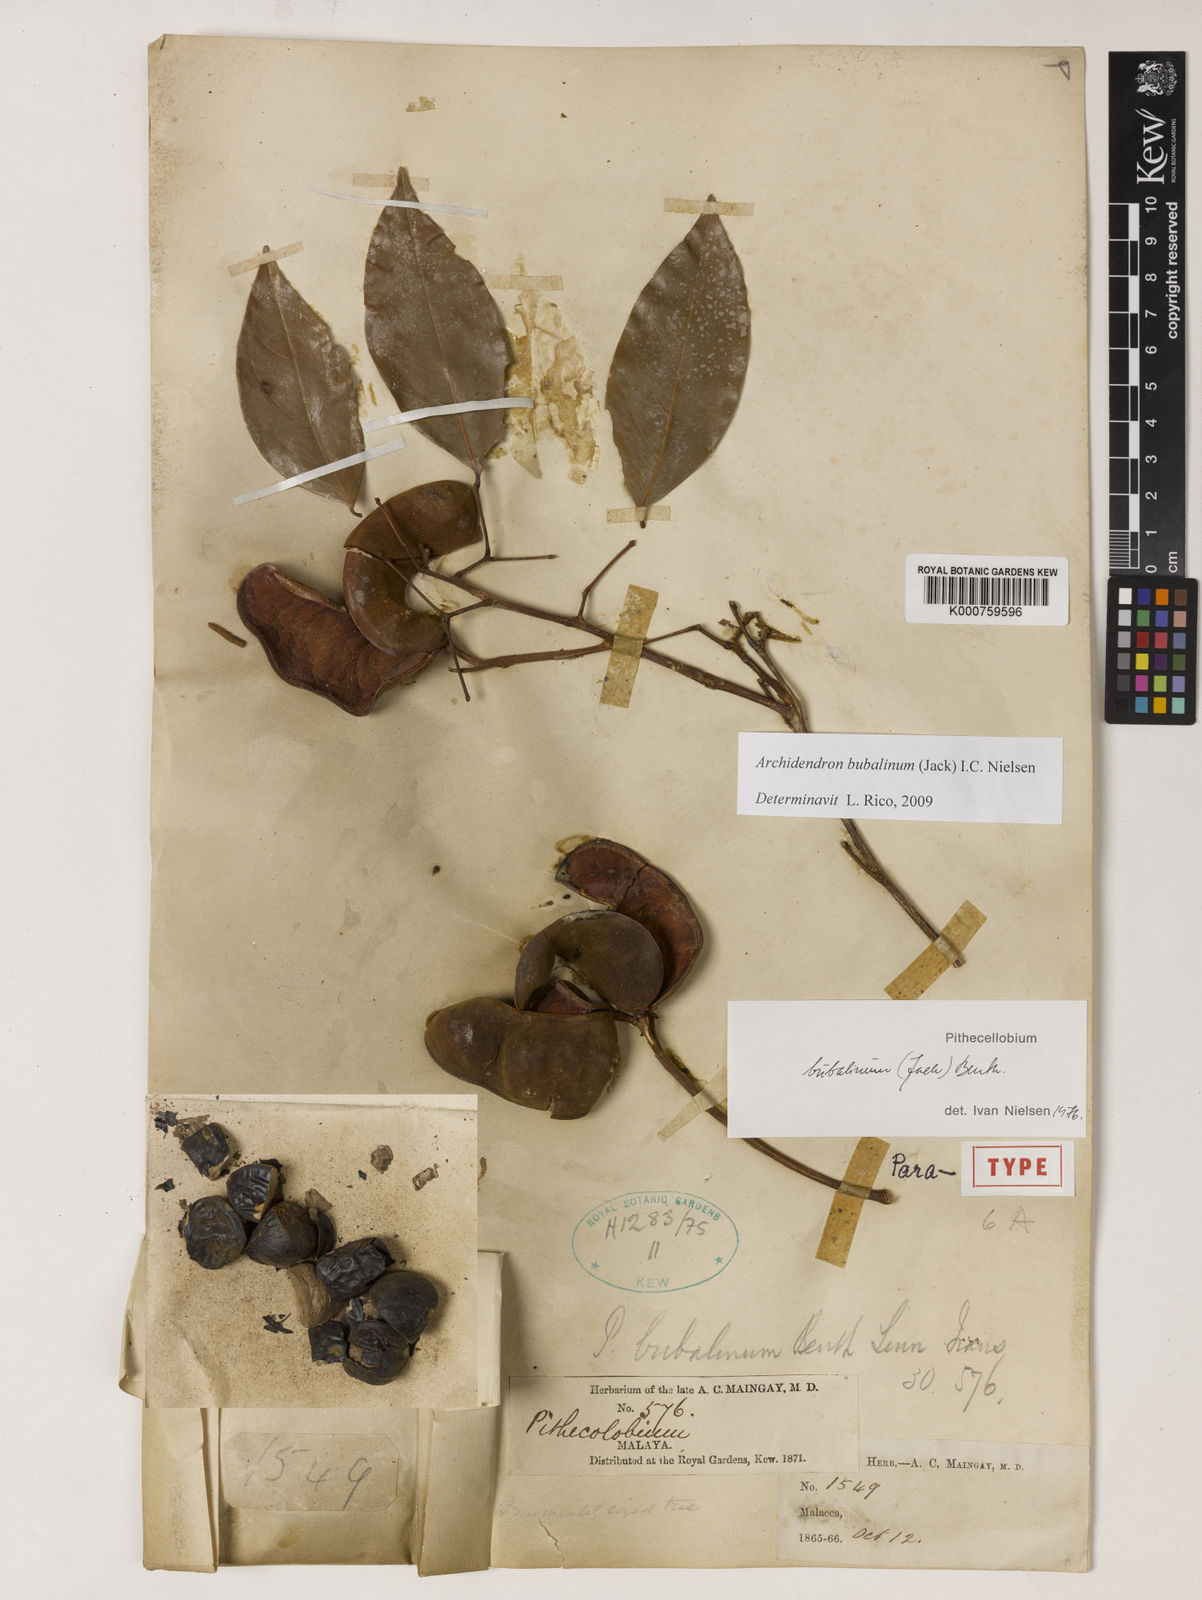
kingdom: Plantae
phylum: Tracheophyta
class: Magnoliopsida
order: Fabales
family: Fabaceae
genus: Archidendron
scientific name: Archidendron bubalinum
